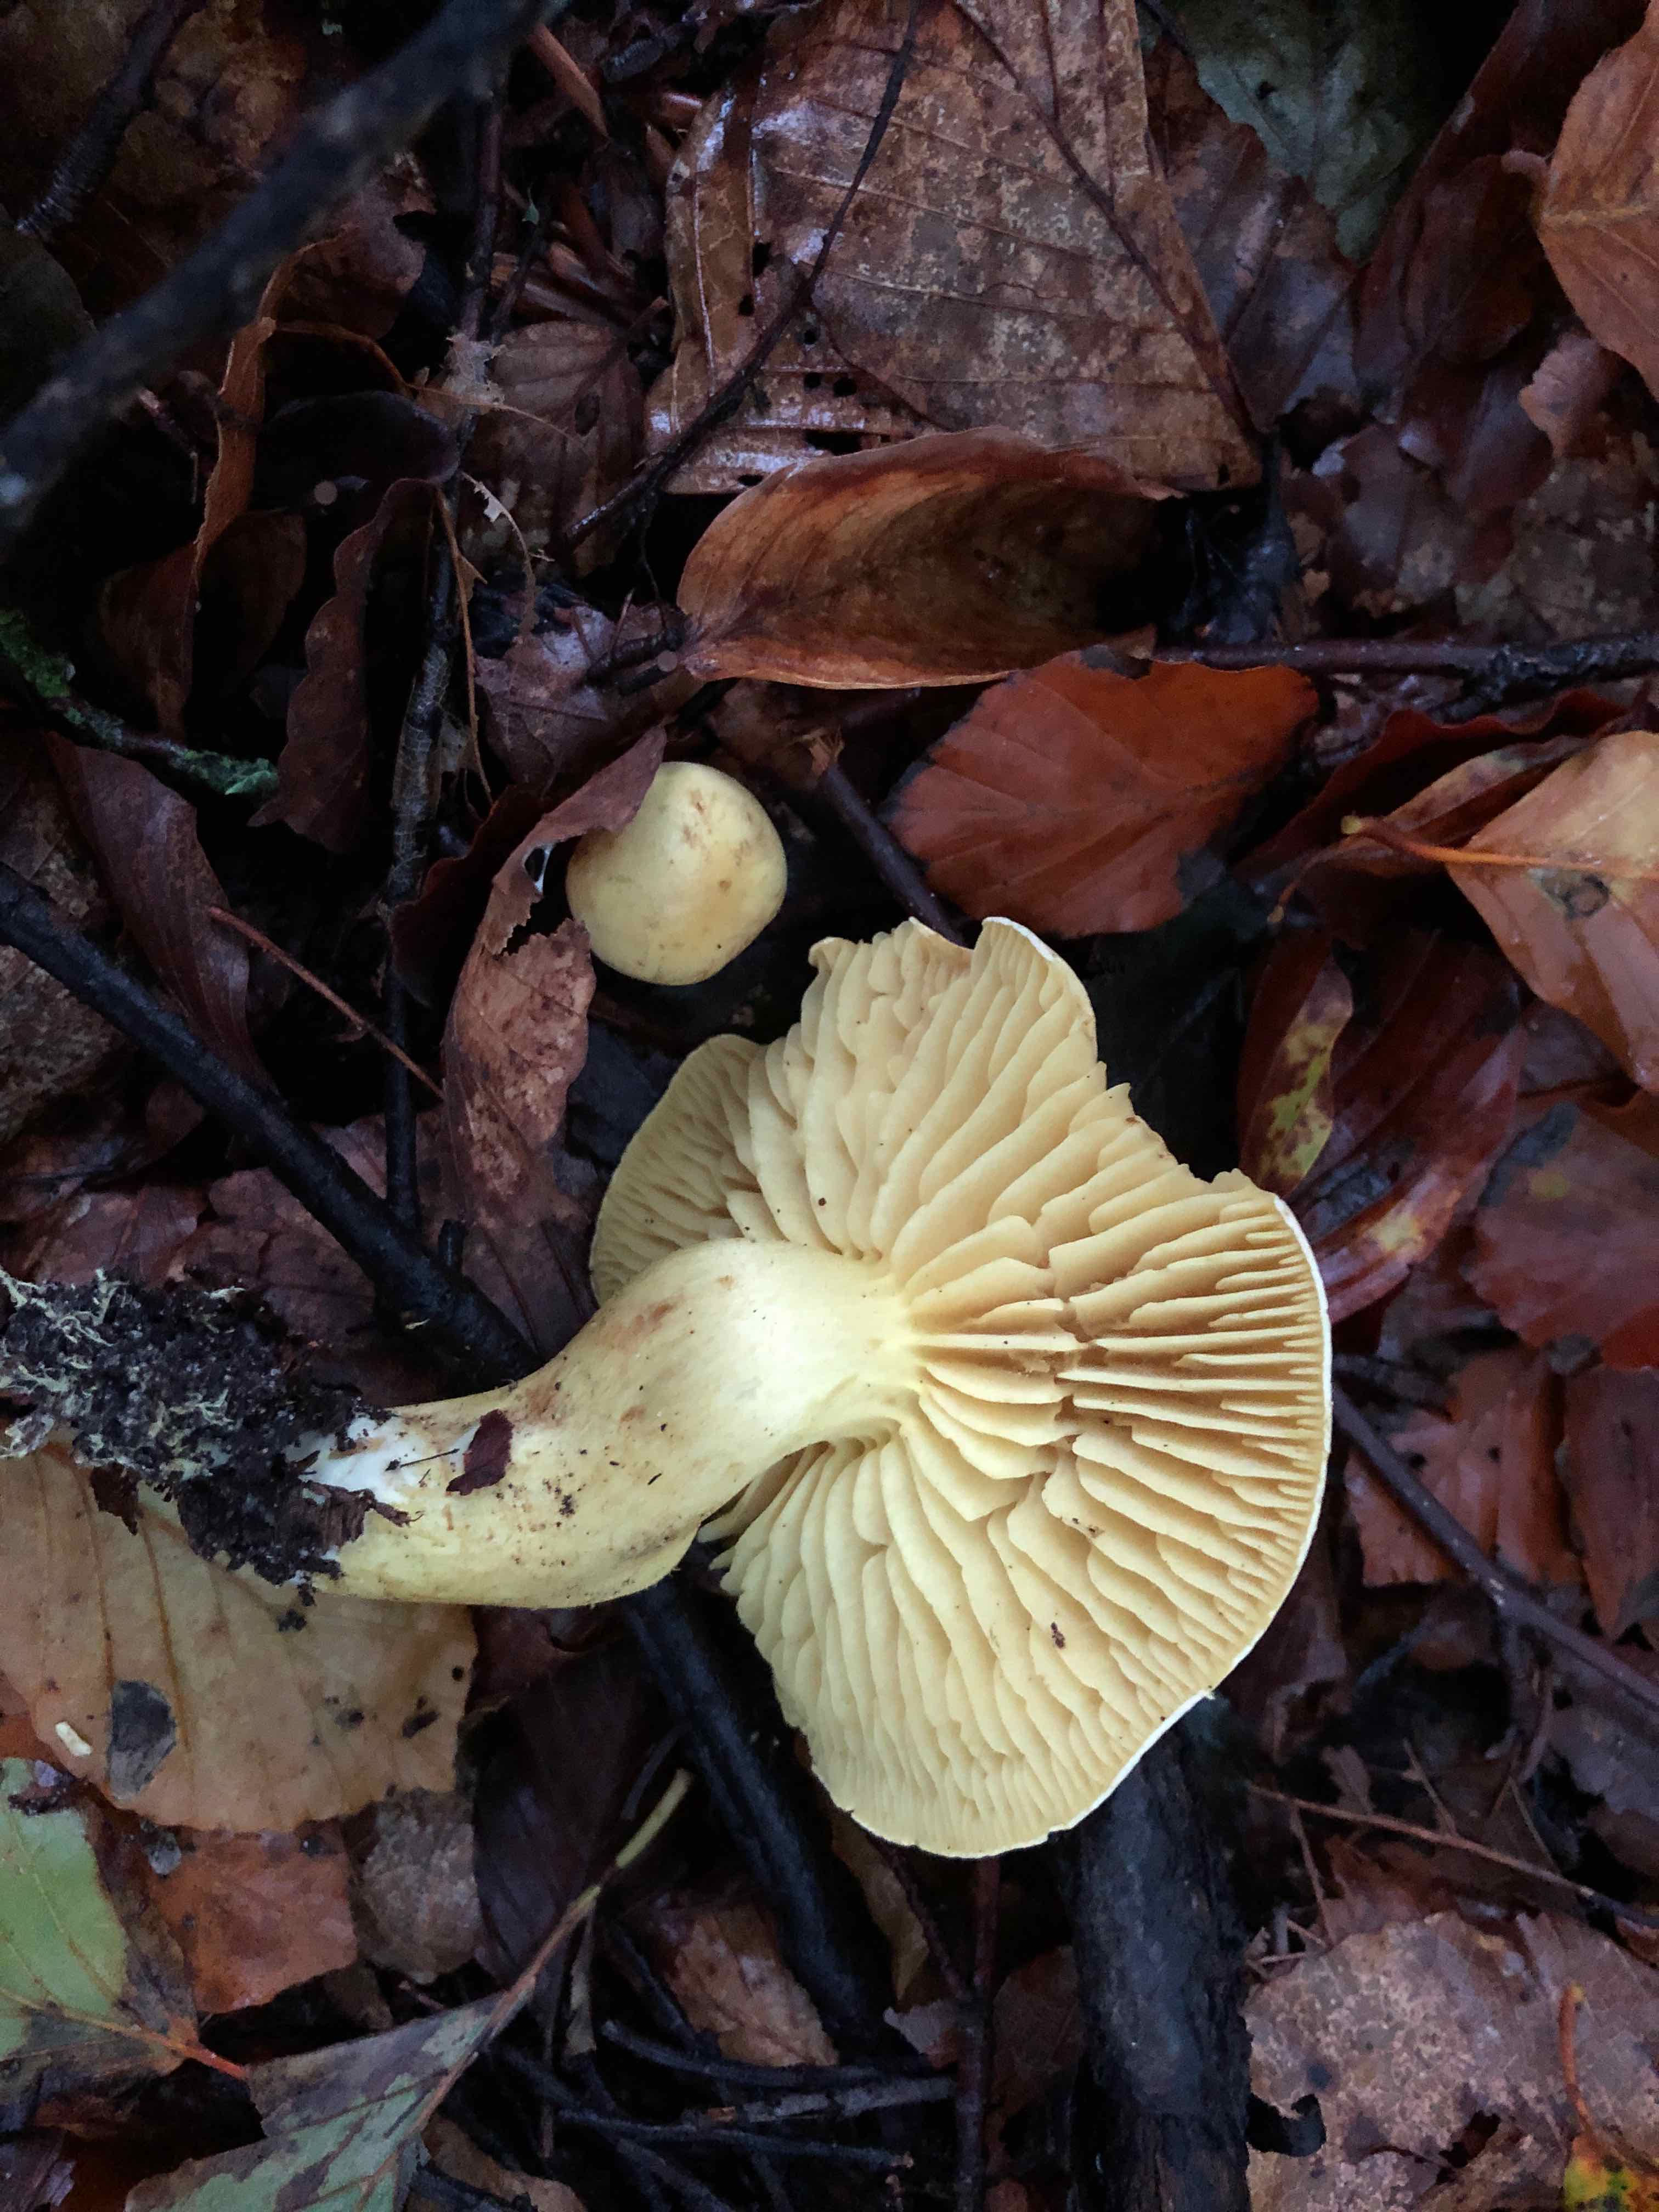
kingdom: Fungi
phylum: Basidiomycota
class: Agaricomycetes
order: Agaricales
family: Tricholomataceae
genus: Tricholoma
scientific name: Tricholoma sulphureum
